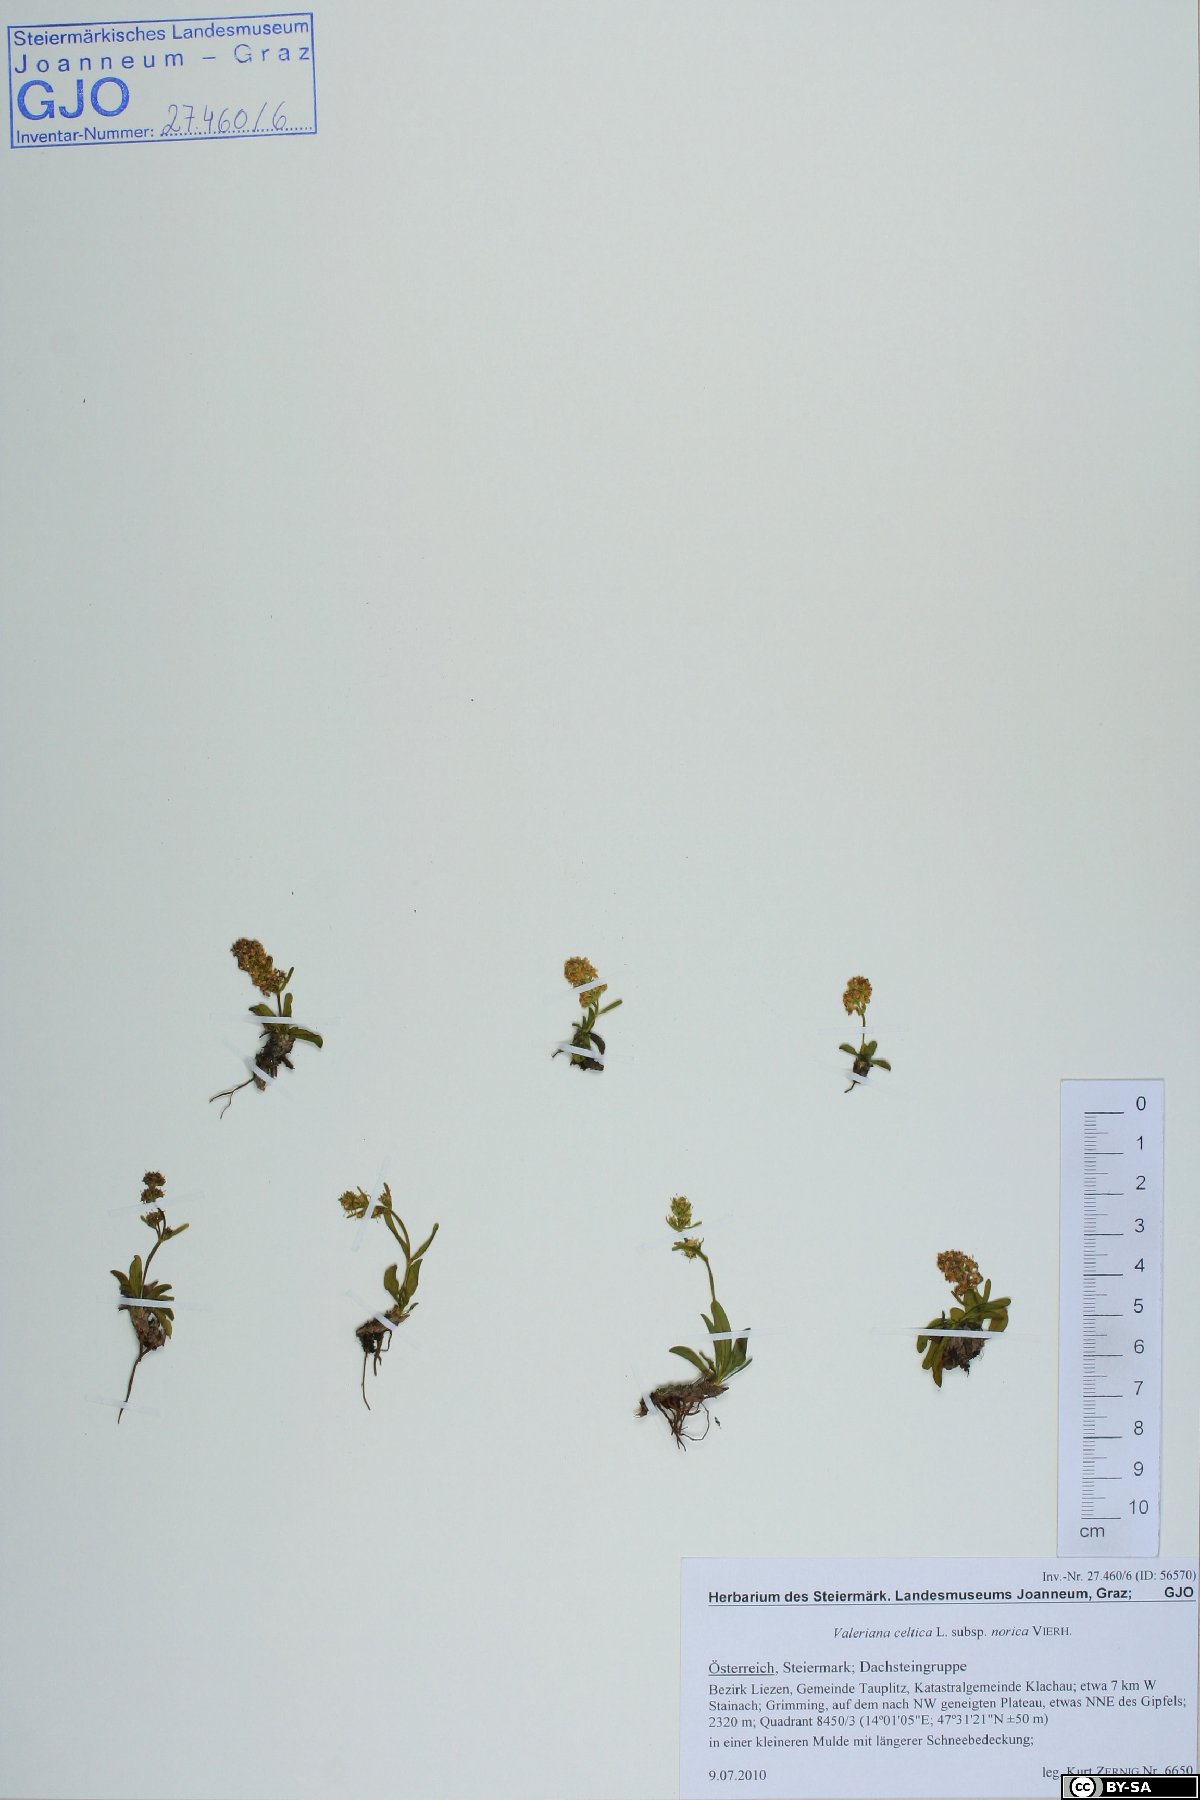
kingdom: Plantae
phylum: Tracheophyta
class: Magnoliopsida
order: Dipsacales
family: Caprifoliaceae
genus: Valeriana
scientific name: Valeriana celtica
